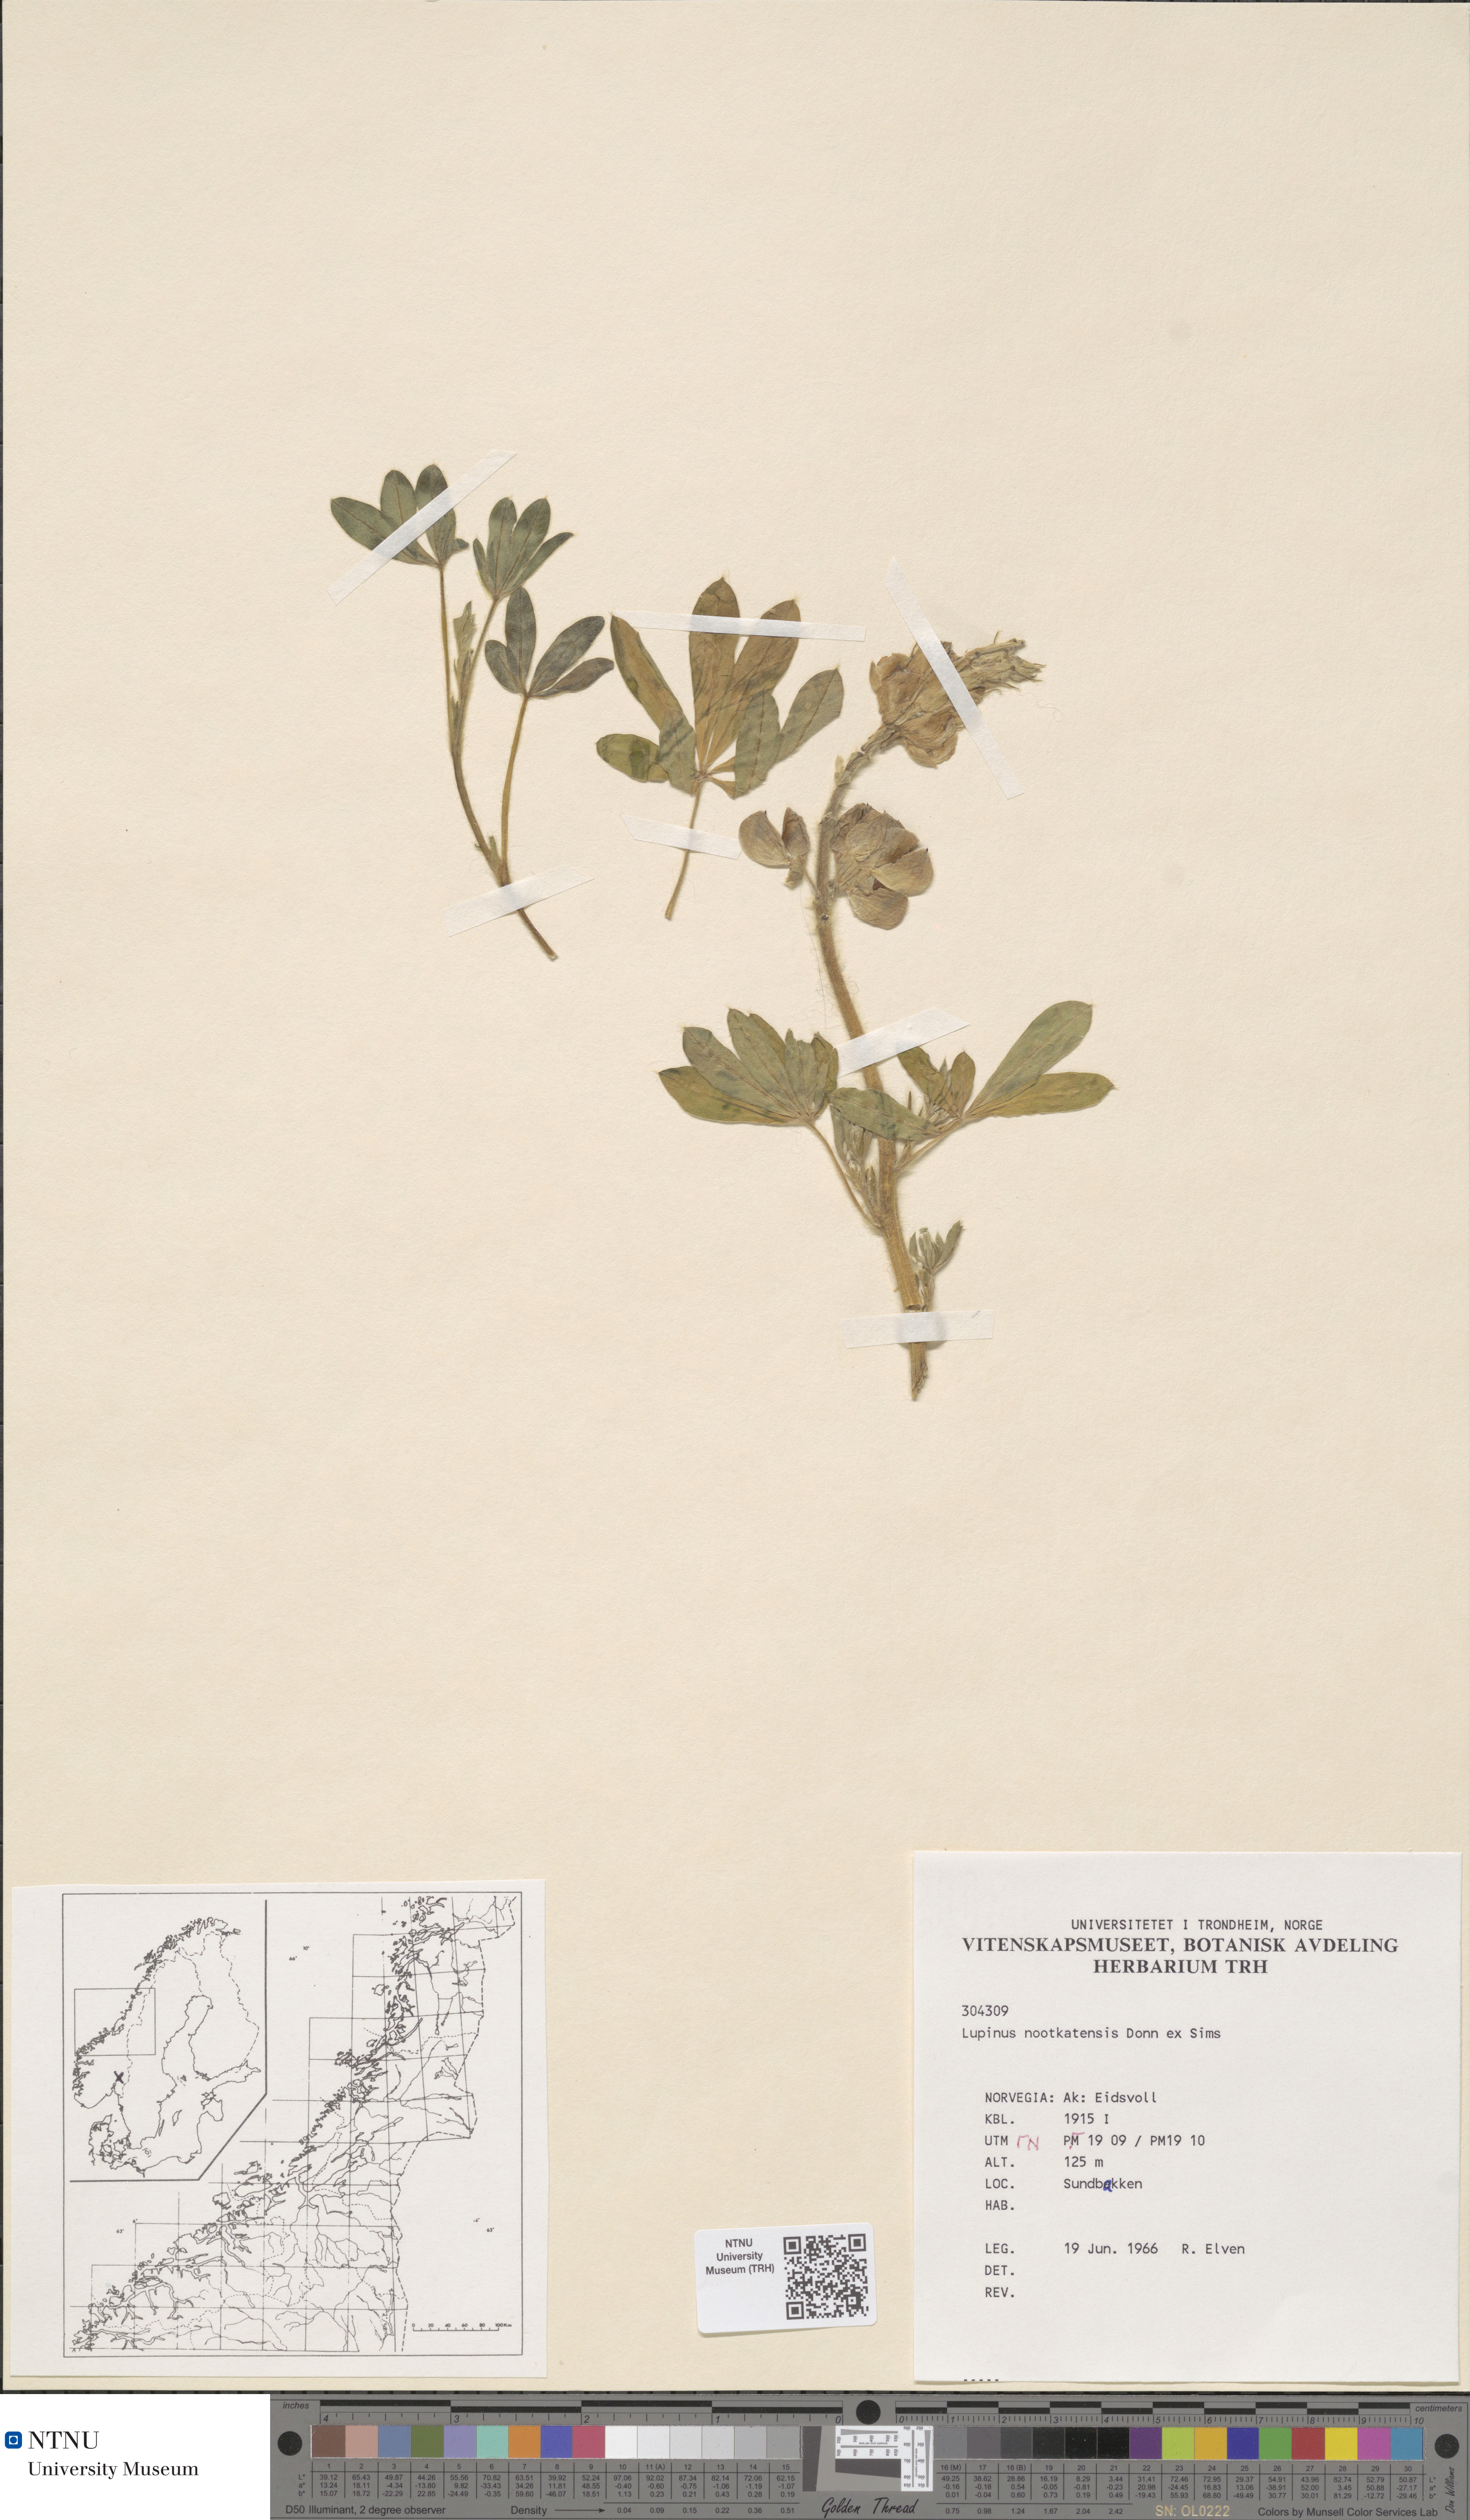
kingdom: Plantae
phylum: Tracheophyta
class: Magnoliopsida
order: Fabales
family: Fabaceae
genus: Lupinus
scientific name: Lupinus nootkatensis
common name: Nootka lupine
